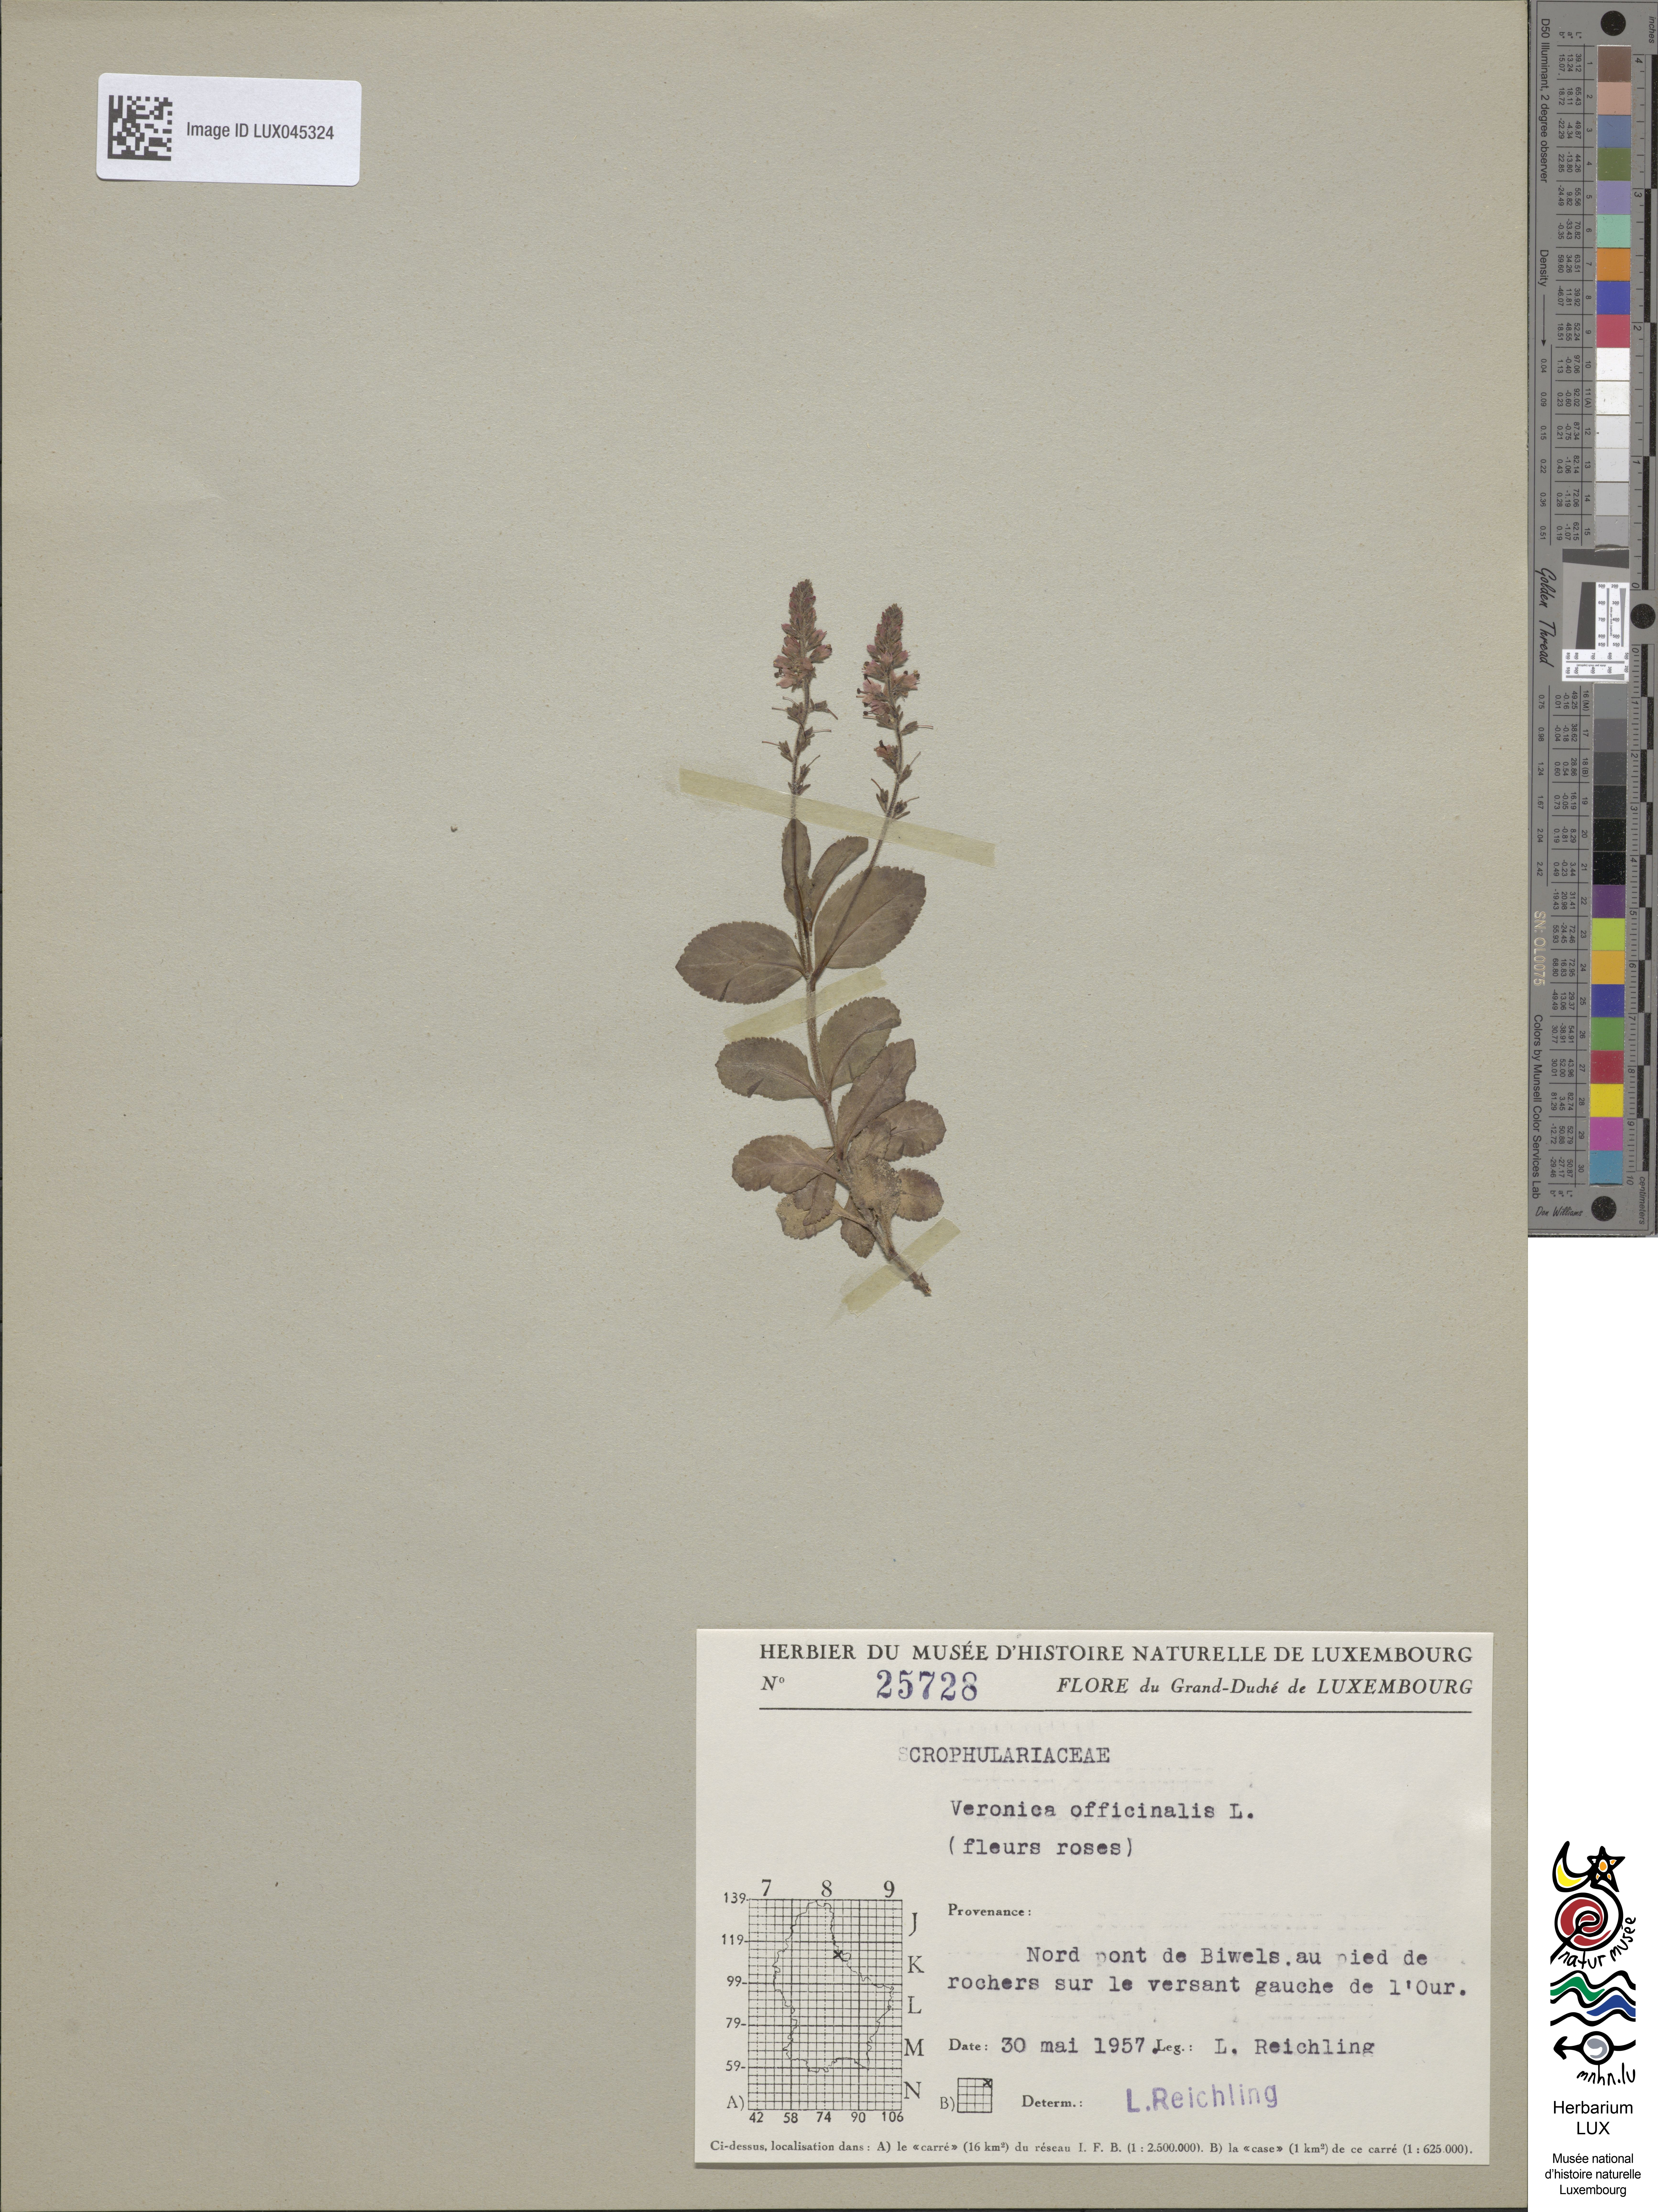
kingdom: Plantae
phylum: Tracheophyta
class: Magnoliopsida
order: Lamiales
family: Plantaginaceae
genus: Veronica
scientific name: Veronica officinalis
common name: Common speedwell
